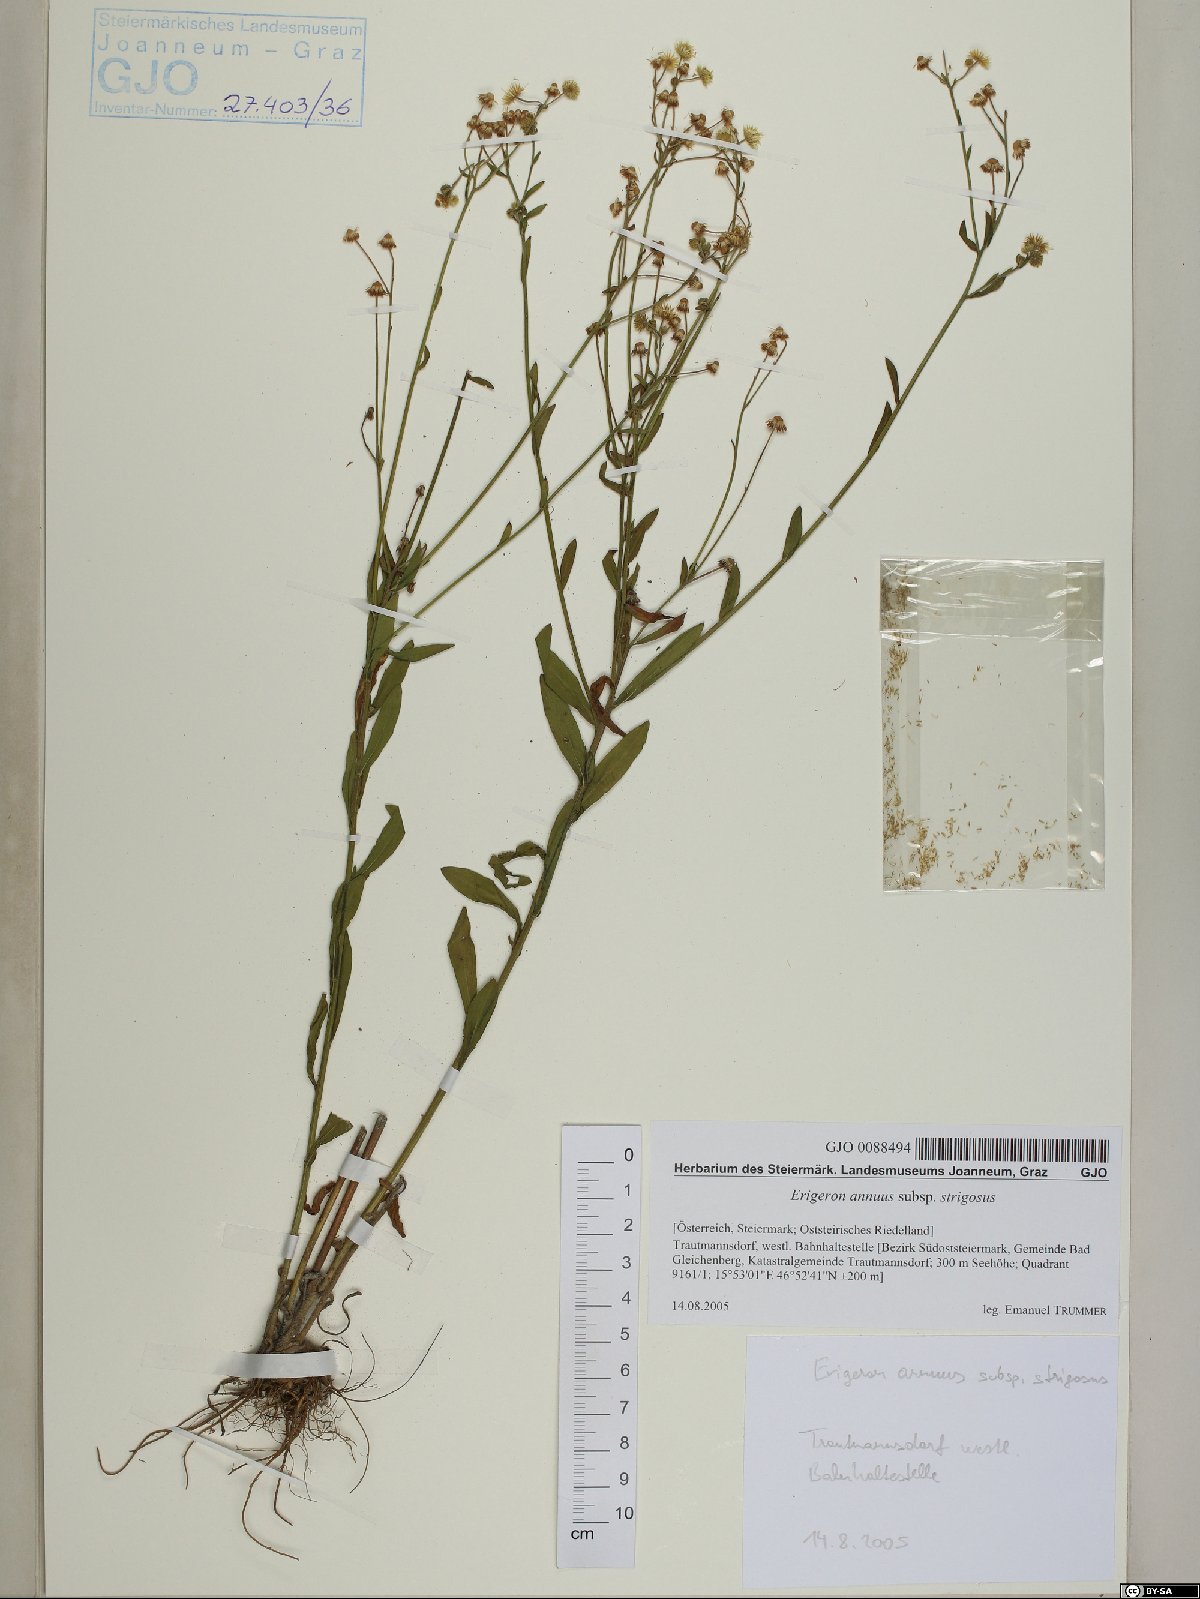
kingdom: Plantae
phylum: Tracheophyta
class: Magnoliopsida
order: Asterales
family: Asteraceae
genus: Erigeron
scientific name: Erigeron strigosus
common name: Common eastern fleabane
